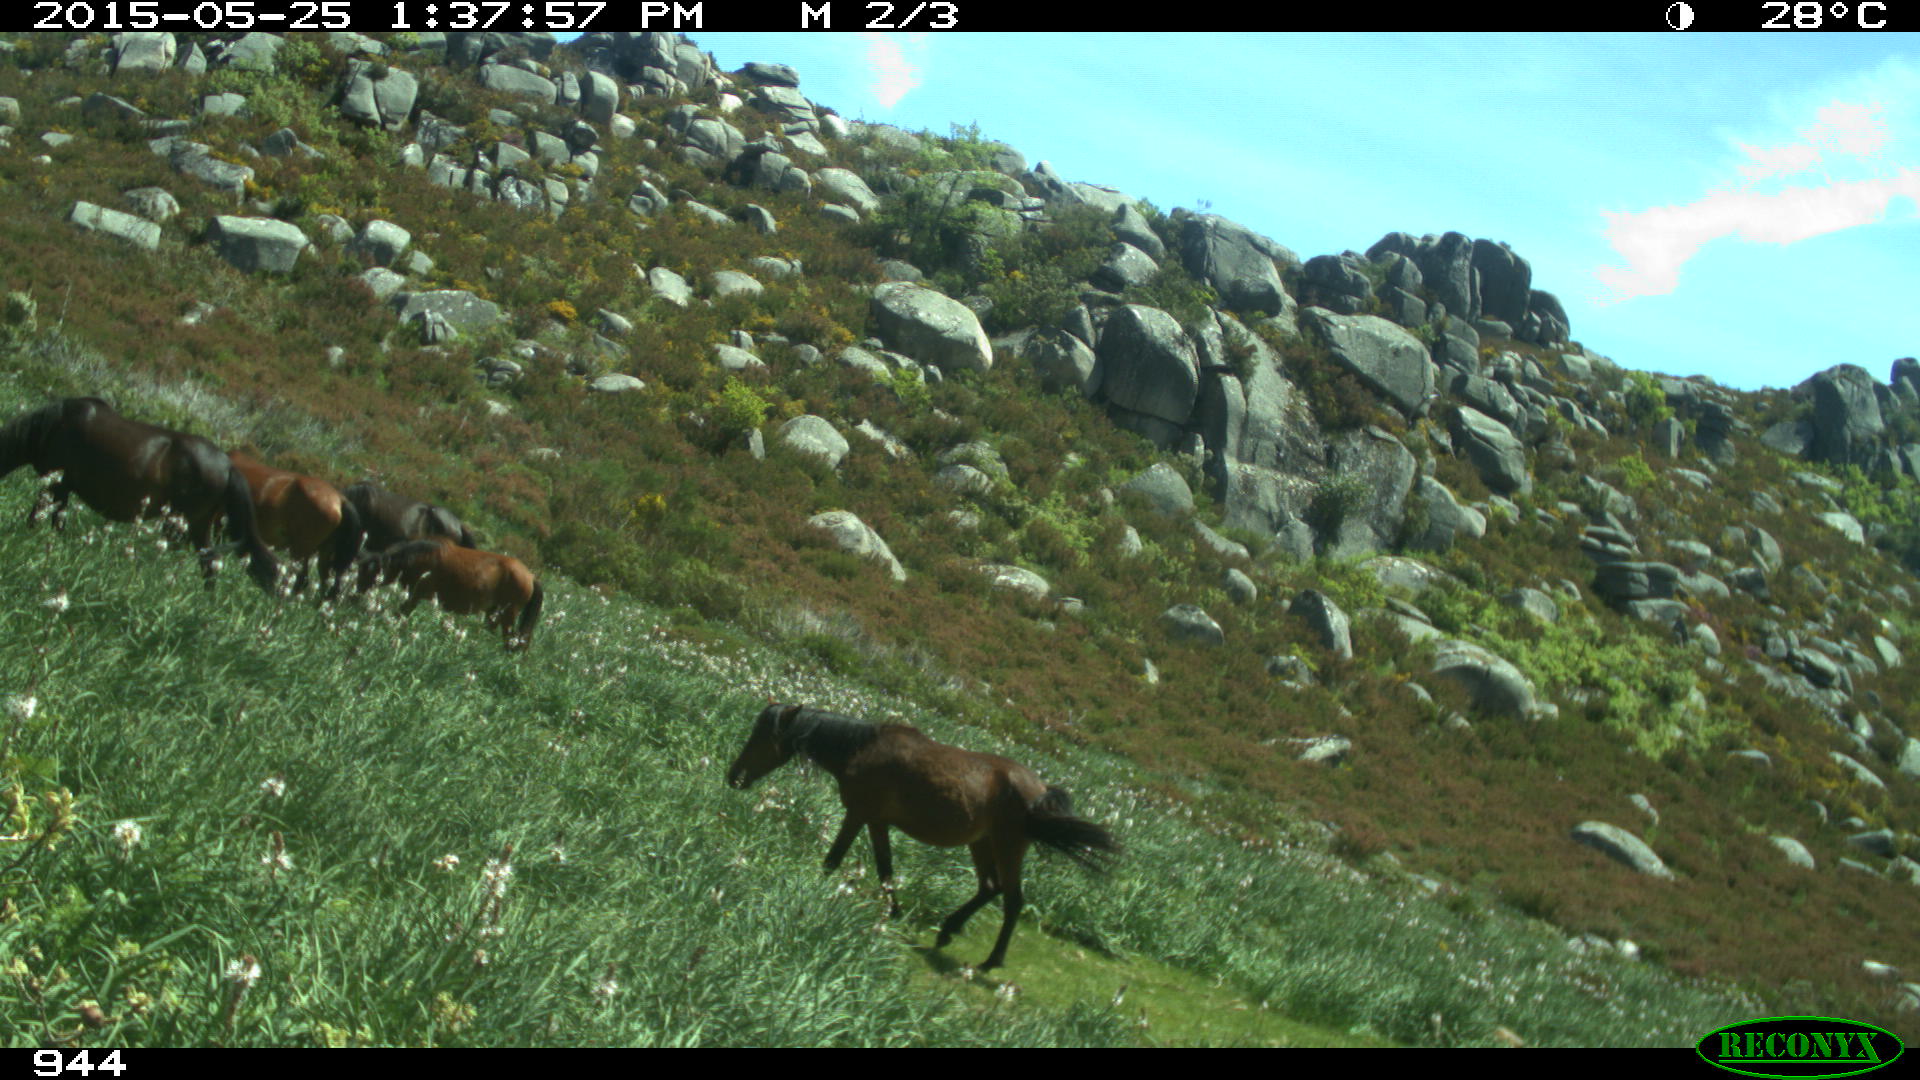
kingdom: Animalia
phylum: Chordata
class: Mammalia
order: Perissodactyla
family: Equidae
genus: Equus
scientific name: Equus caballus
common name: Horse
